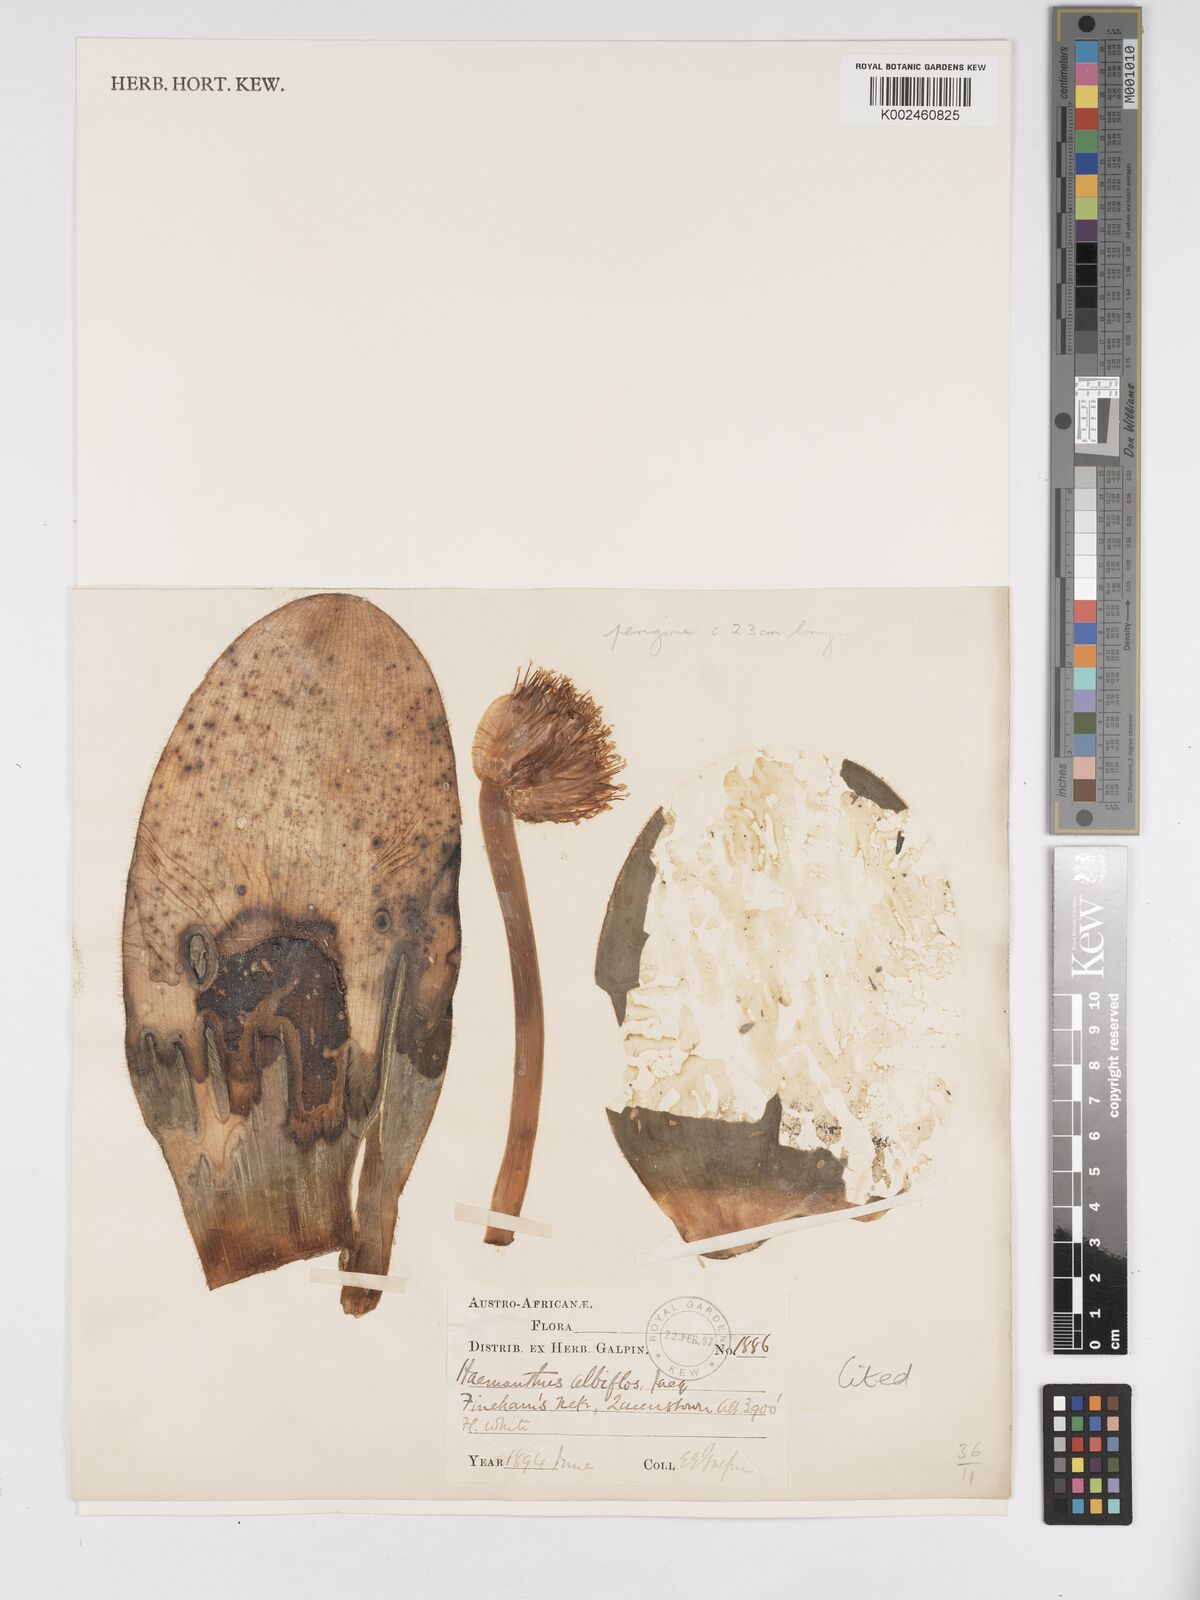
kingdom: Plantae
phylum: Tracheophyta
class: Liliopsida
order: Asparagales
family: Amaryllidaceae
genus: Haemanthus
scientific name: Haemanthus albiflos
